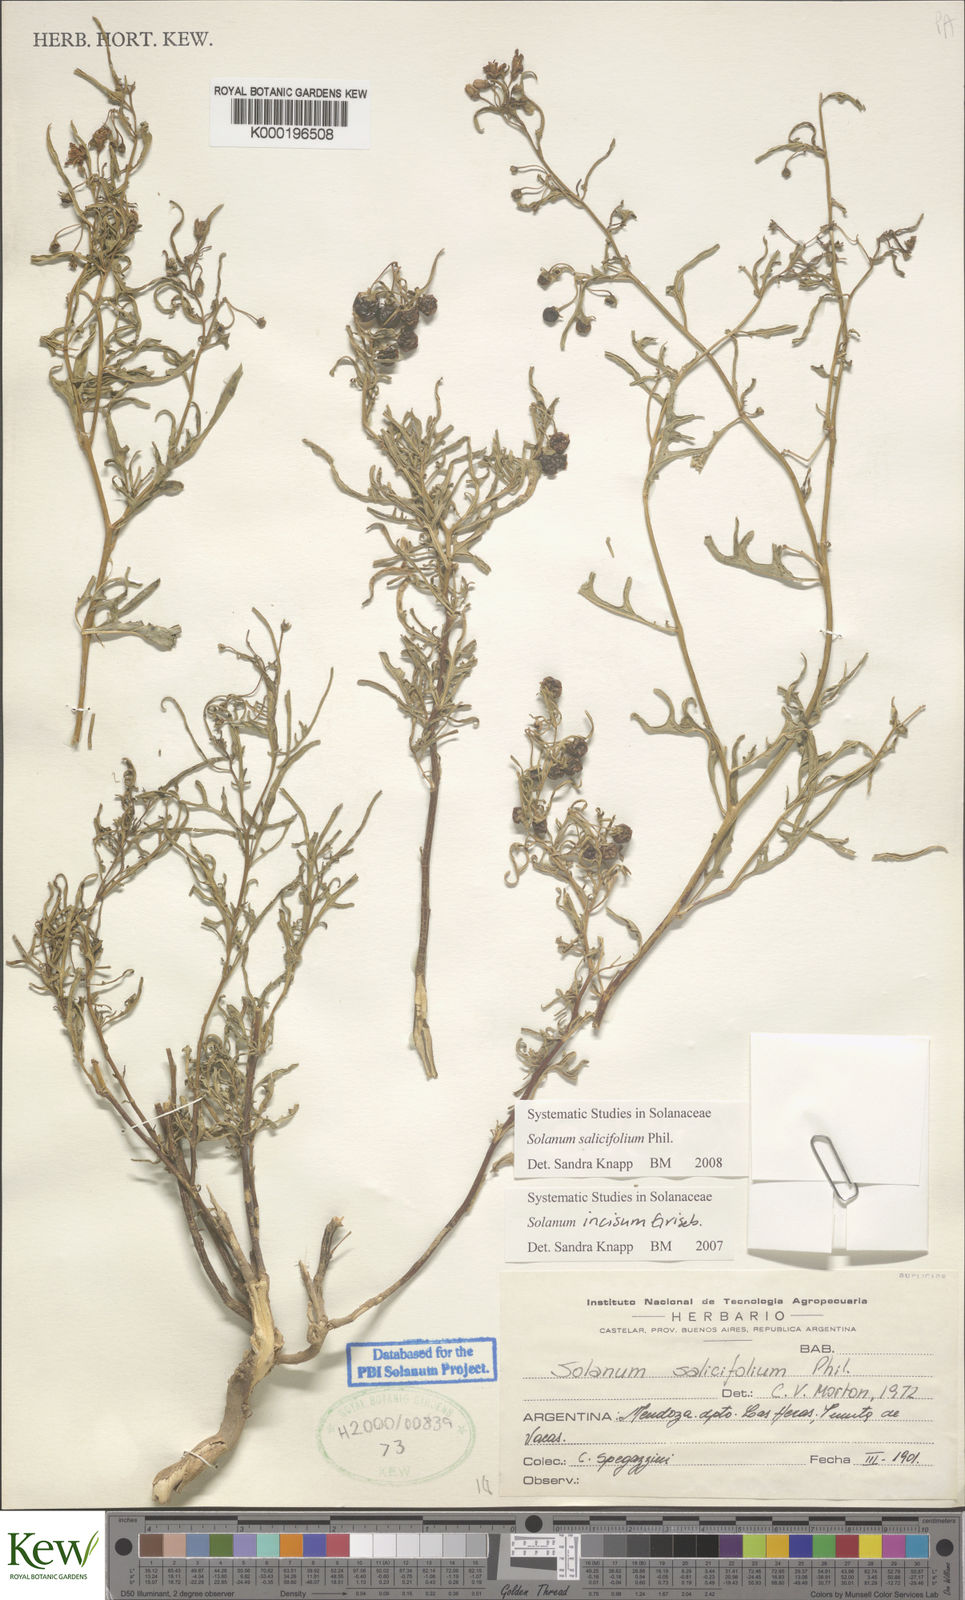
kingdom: Plantae
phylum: Tracheophyta
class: Magnoliopsida
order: Solanales
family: Solanaceae
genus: Solanum
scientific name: Solanum salicifolium
